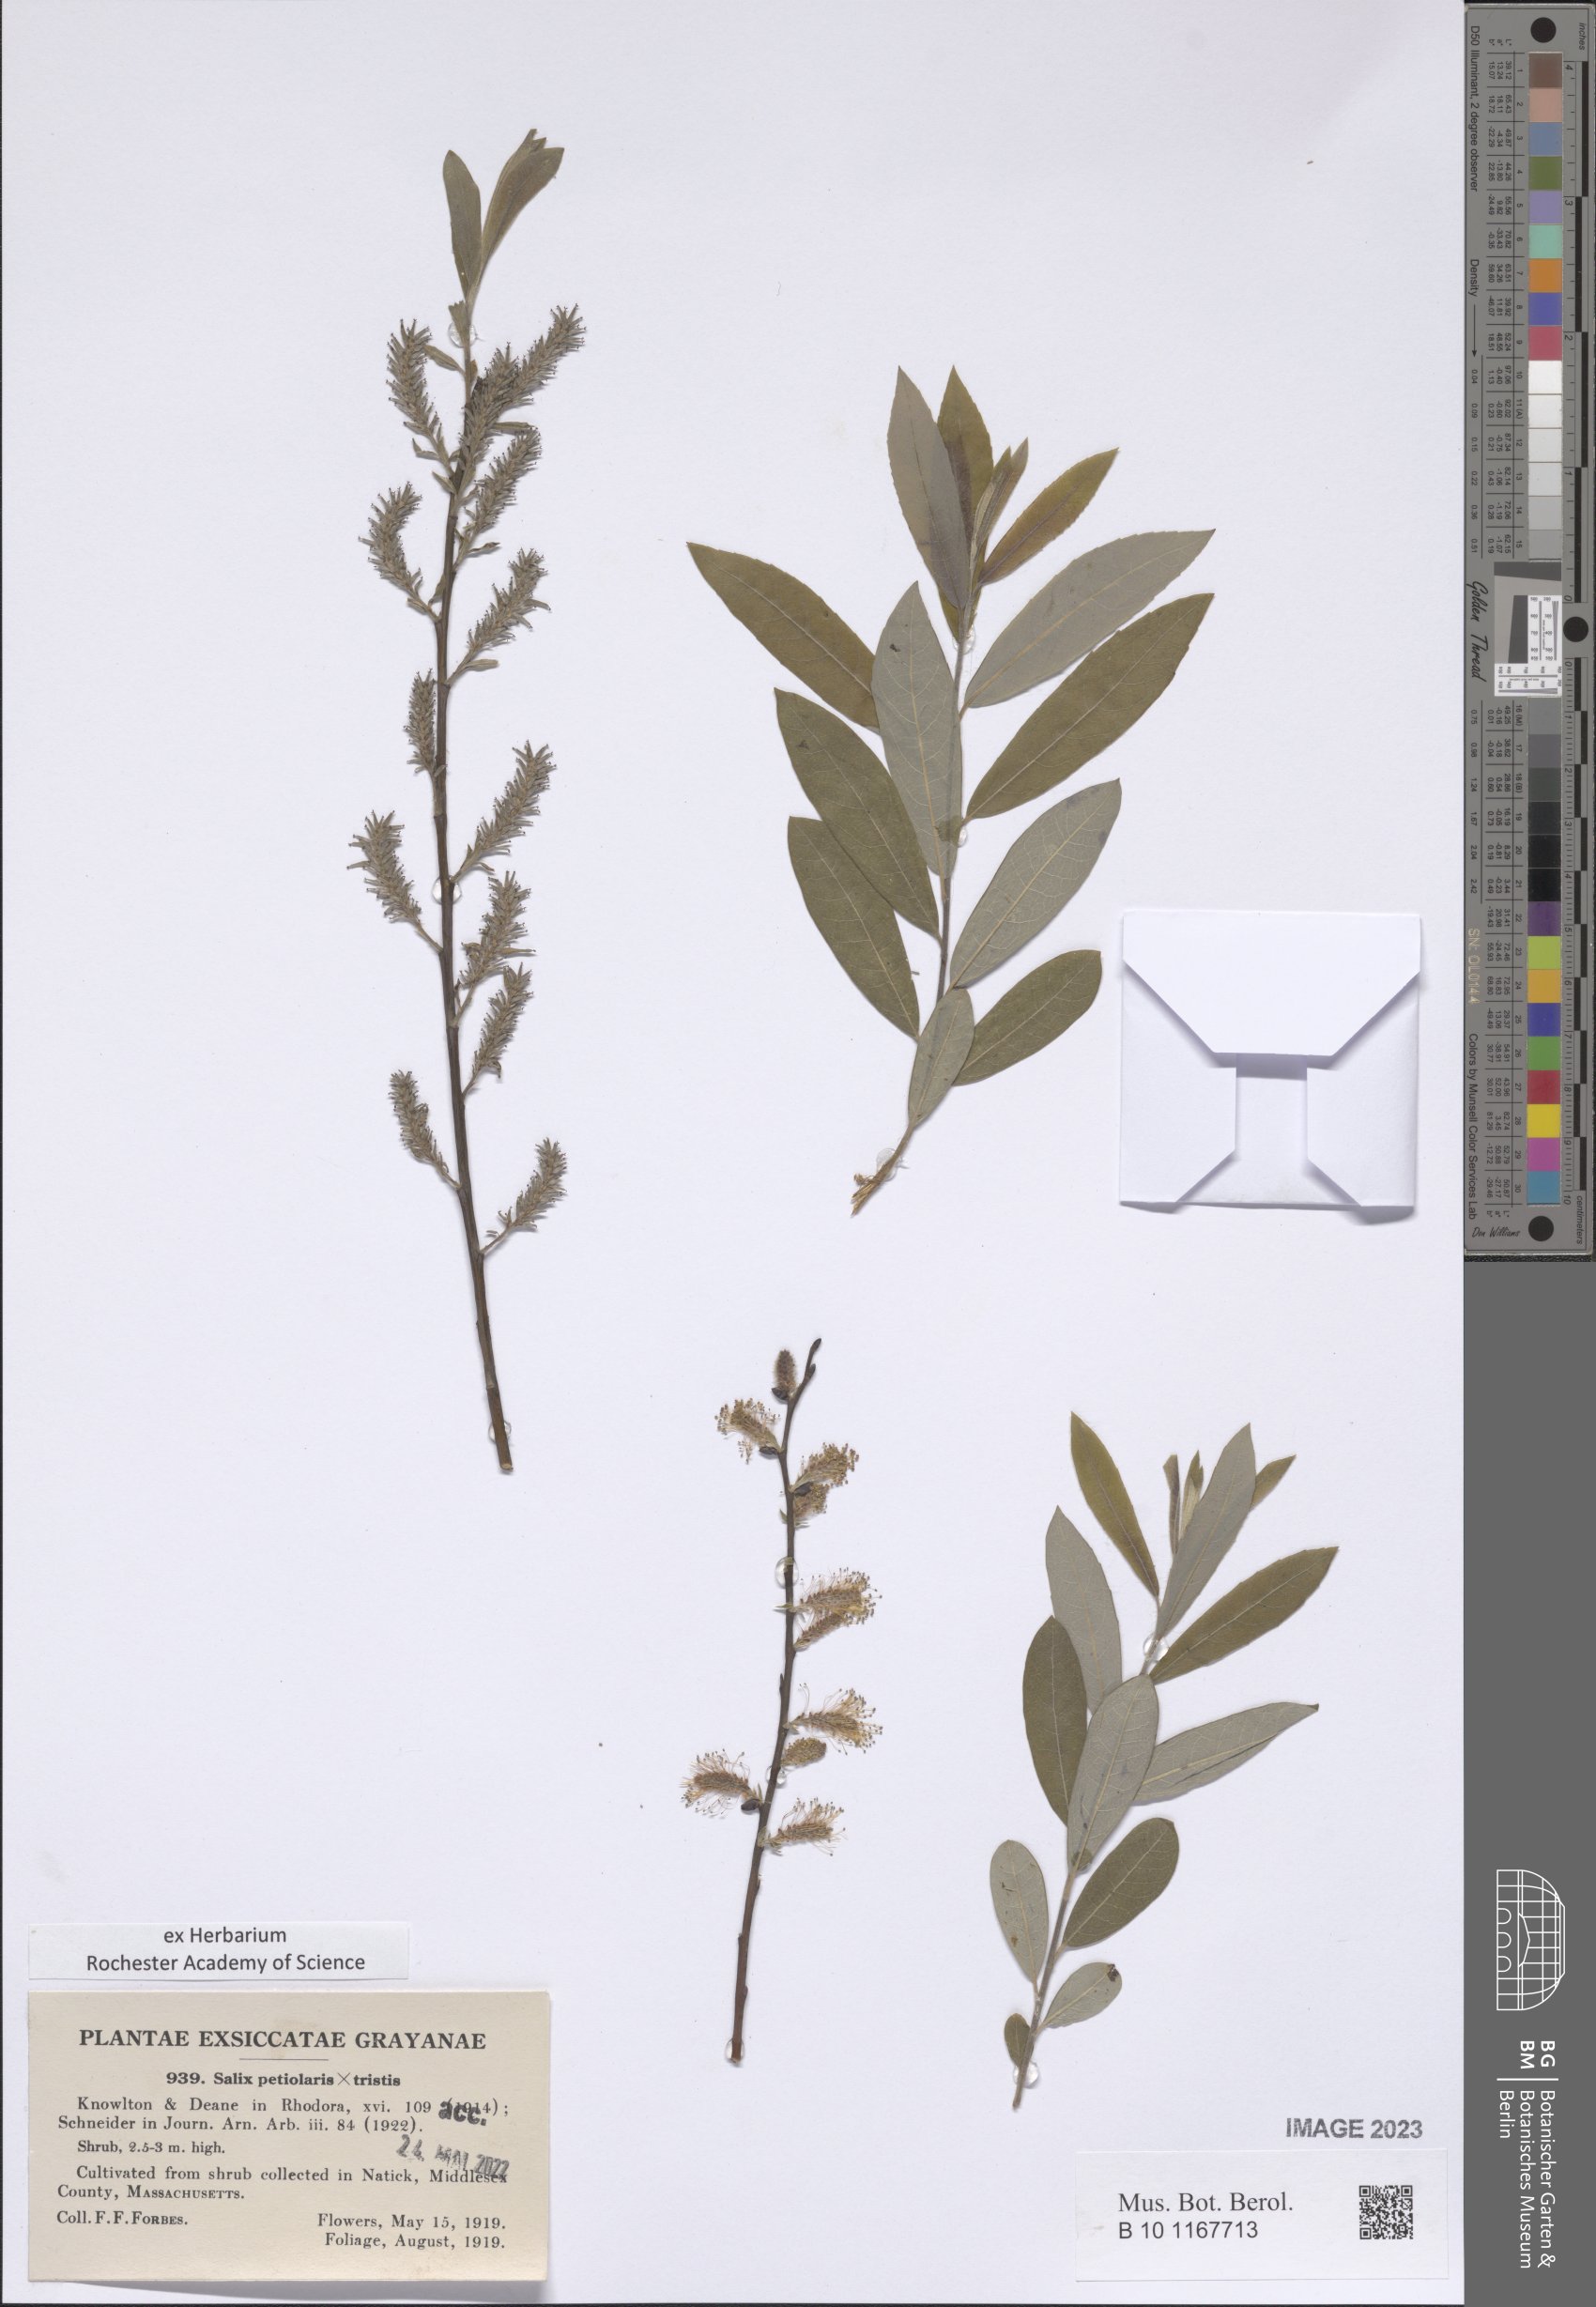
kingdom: Plantae
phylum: Tracheophyta
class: Magnoliopsida
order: Malpighiales
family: Salicaceae
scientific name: Salicaceae
